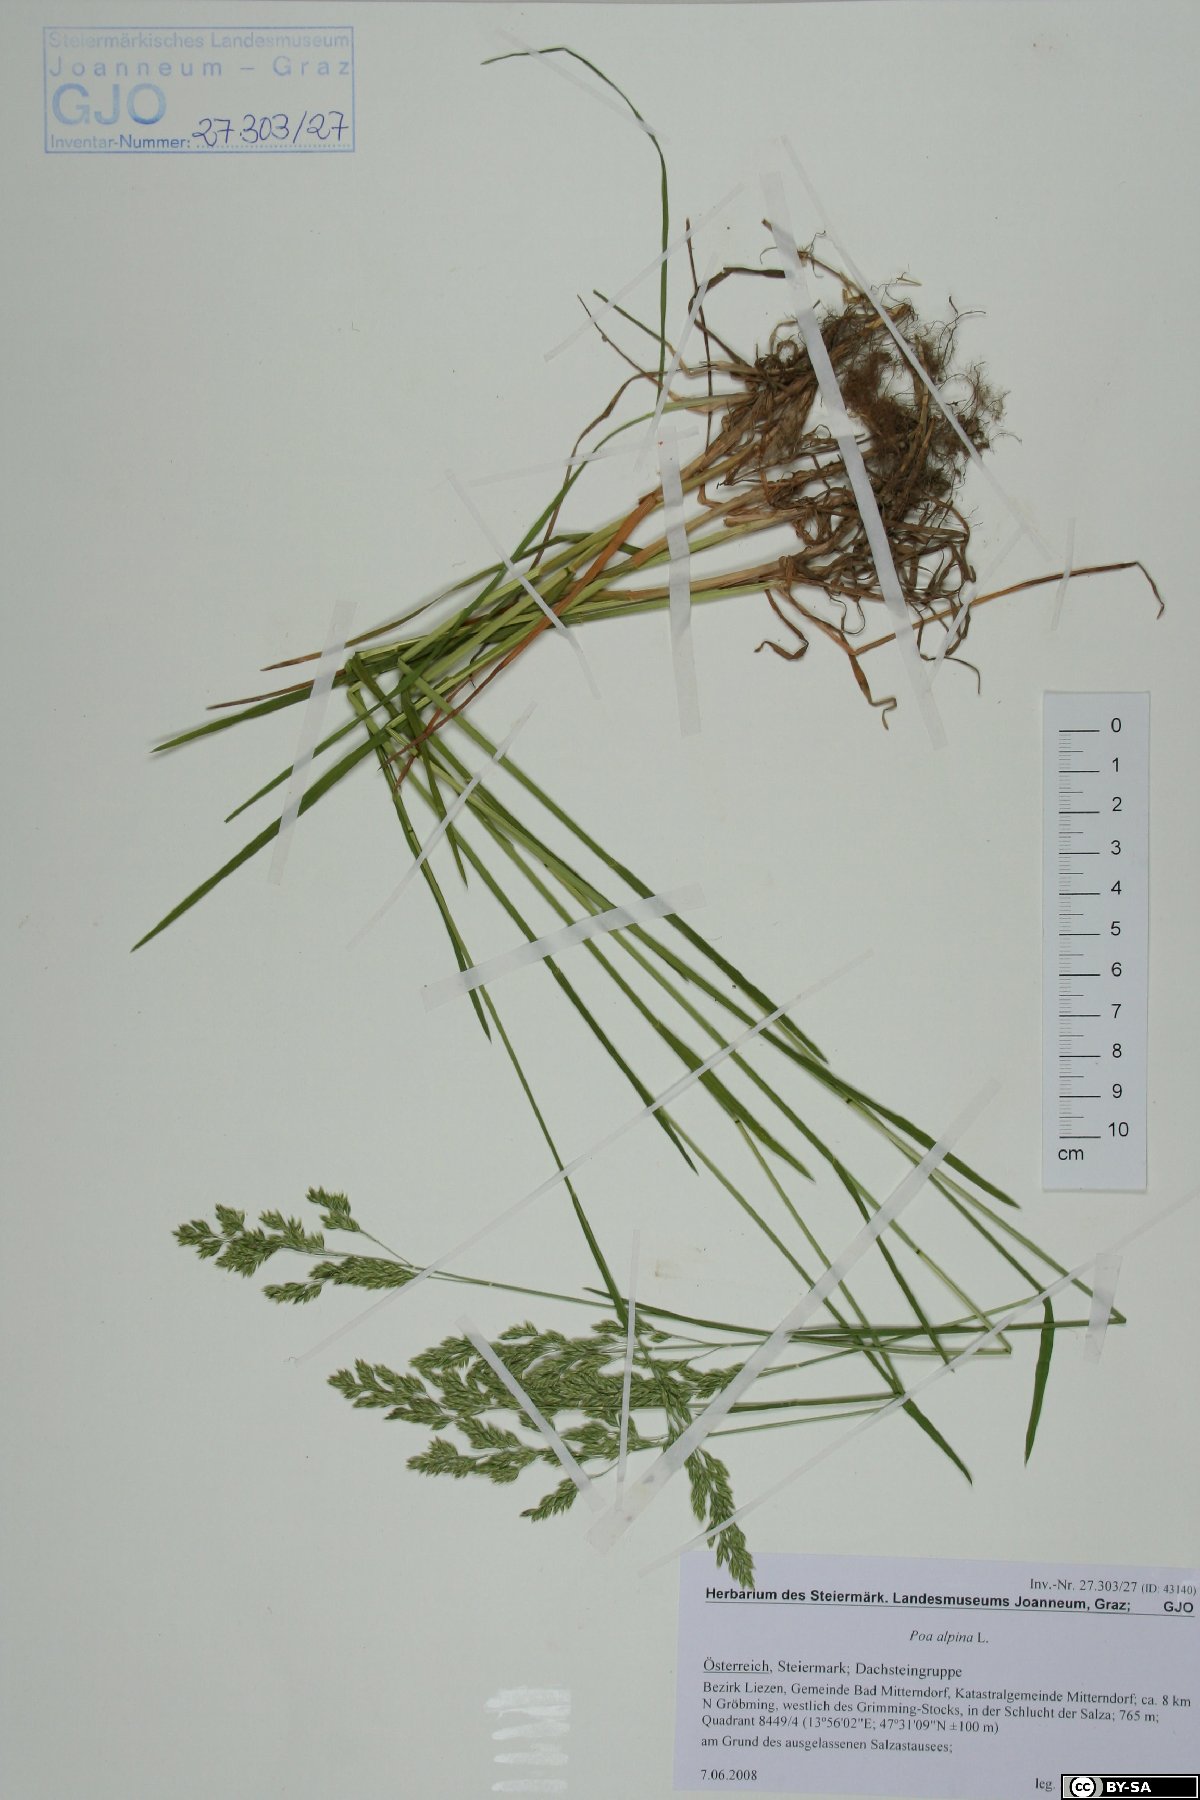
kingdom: Plantae
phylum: Tracheophyta
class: Liliopsida
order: Poales
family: Poaceae
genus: Poa
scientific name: Poa alpina
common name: Alpine bluegrass
